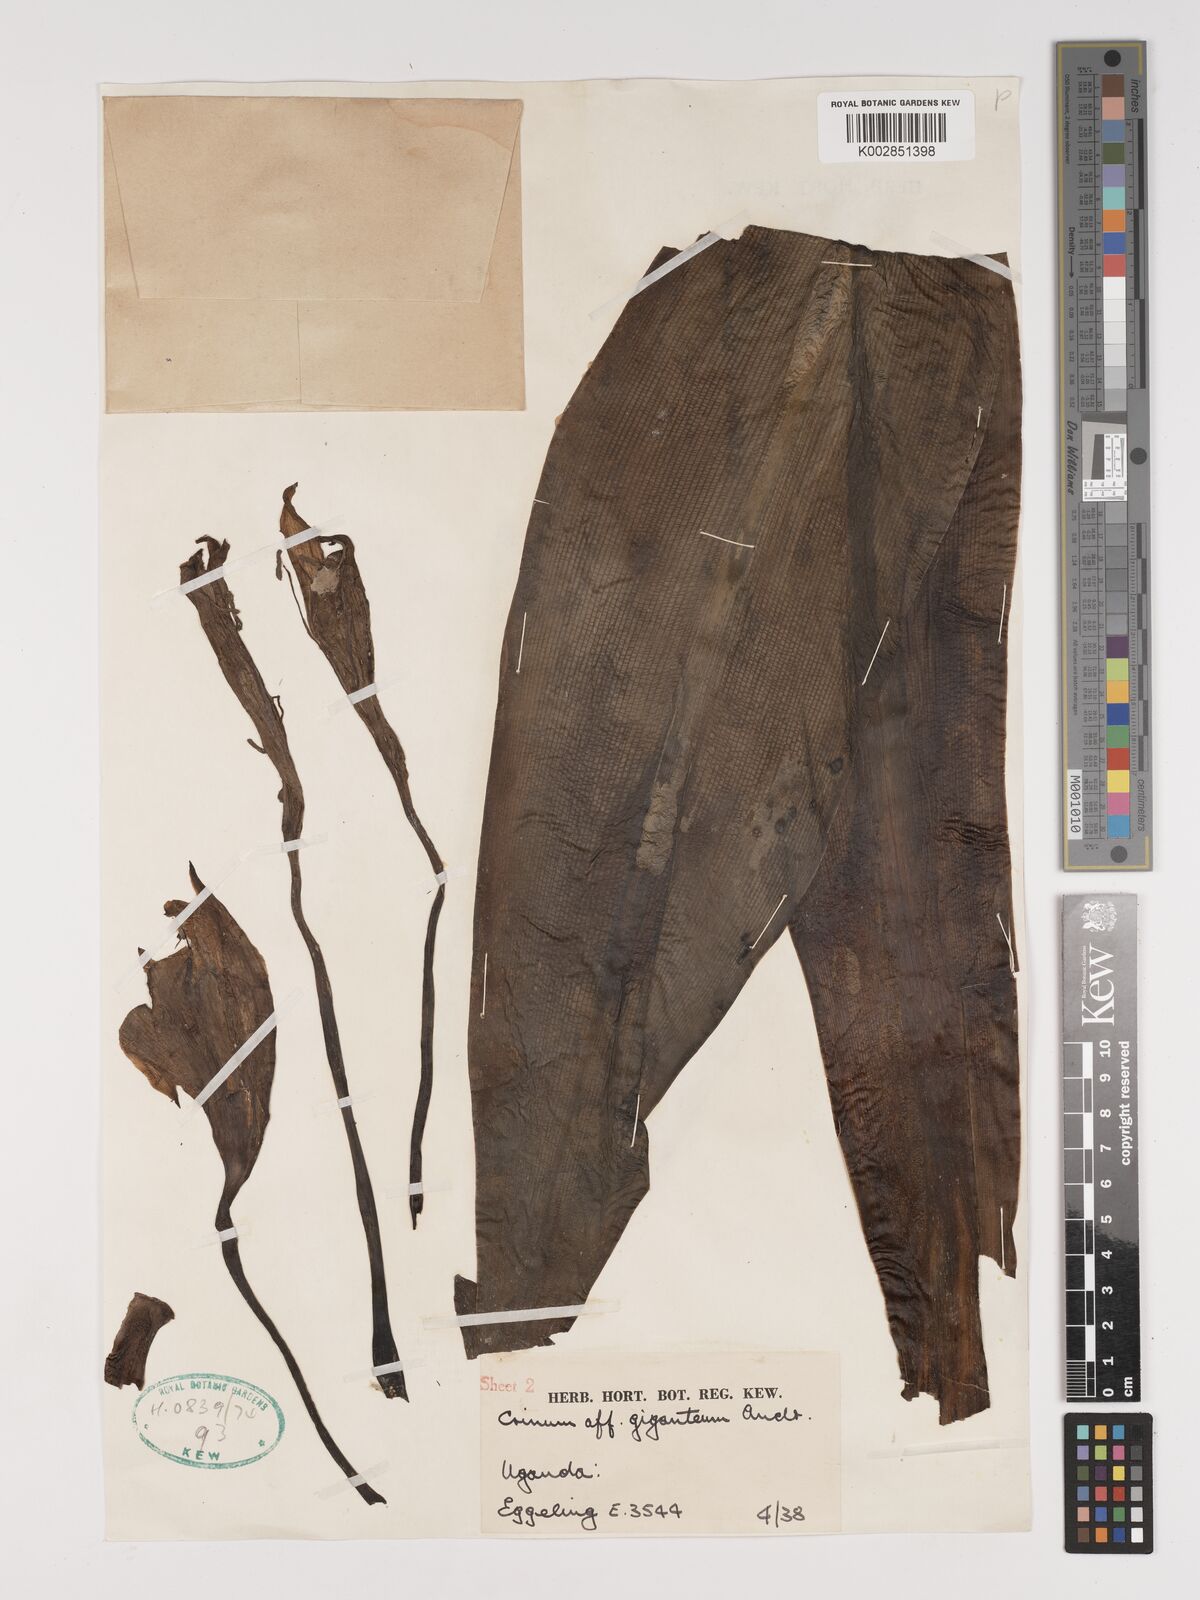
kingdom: Plantae
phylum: Tracheophyta
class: Liliopsida
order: Asparagales
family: Amaryllidaceae
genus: Crinum
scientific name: Crinum glaucum
